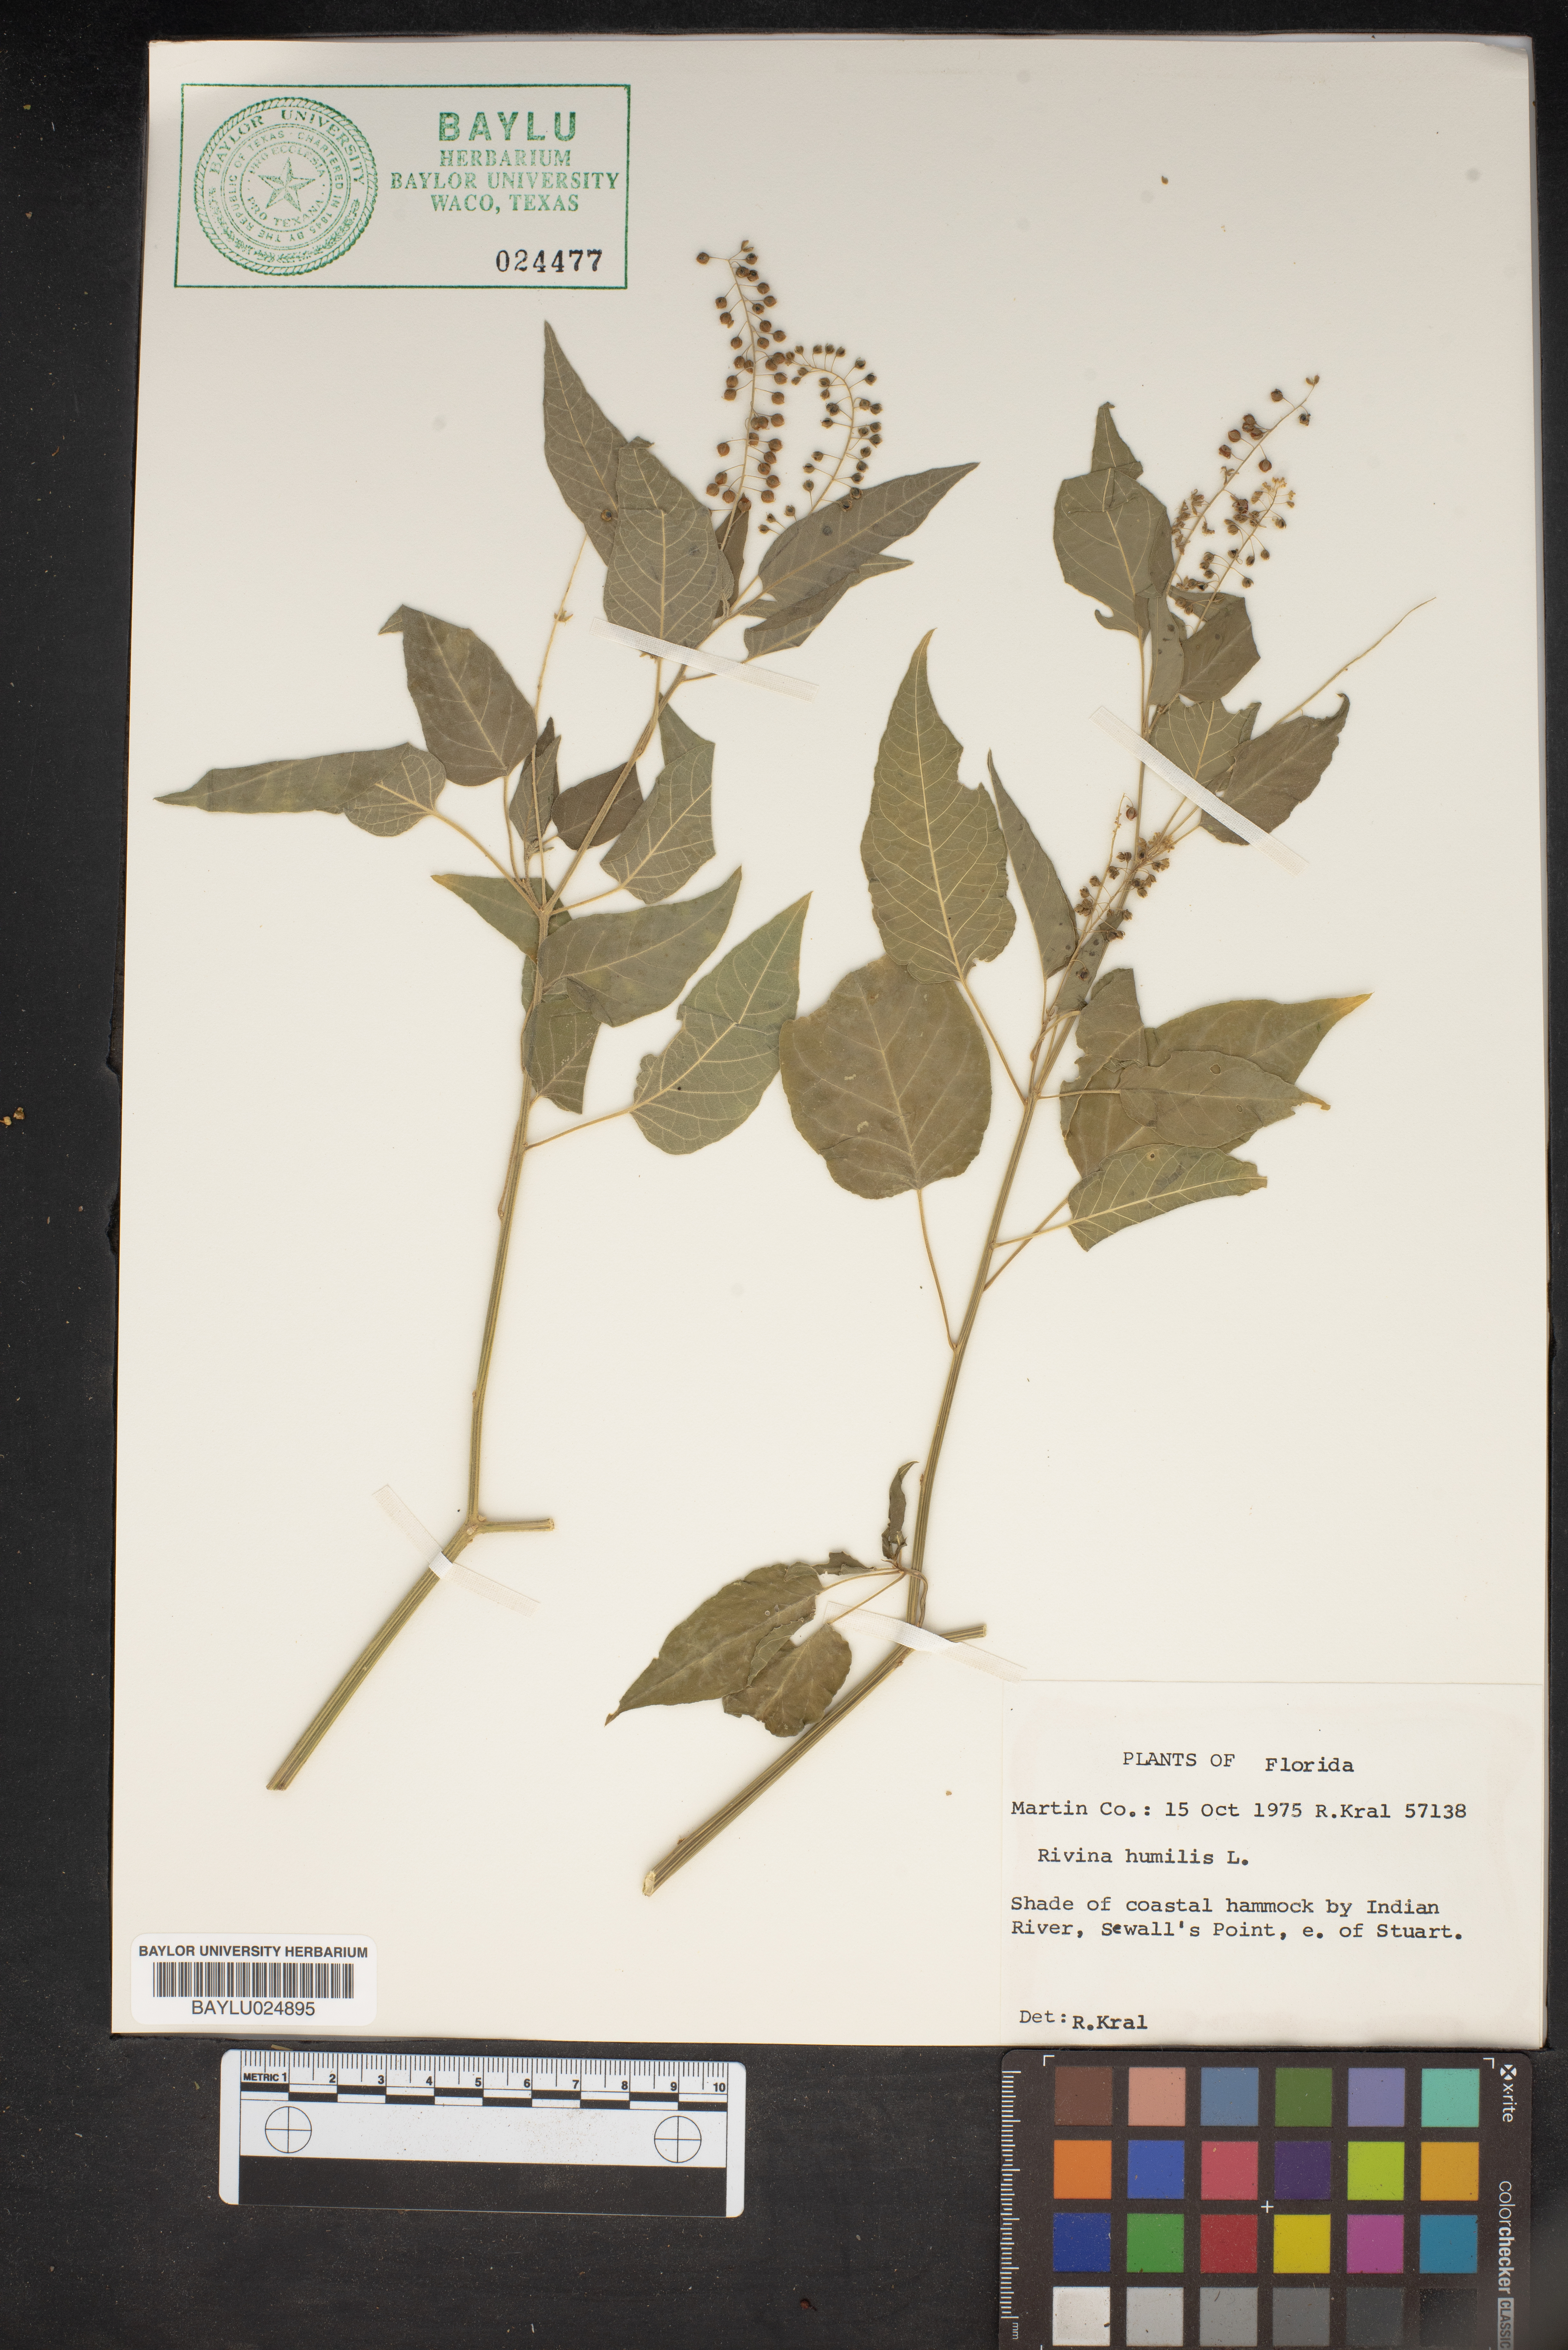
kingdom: Plantae
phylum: Tracheophyta
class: Magnoliopsida
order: Caryophyllales
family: Phytolaccaceae
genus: Rivina
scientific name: Rivina humilis
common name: Rougeplant
